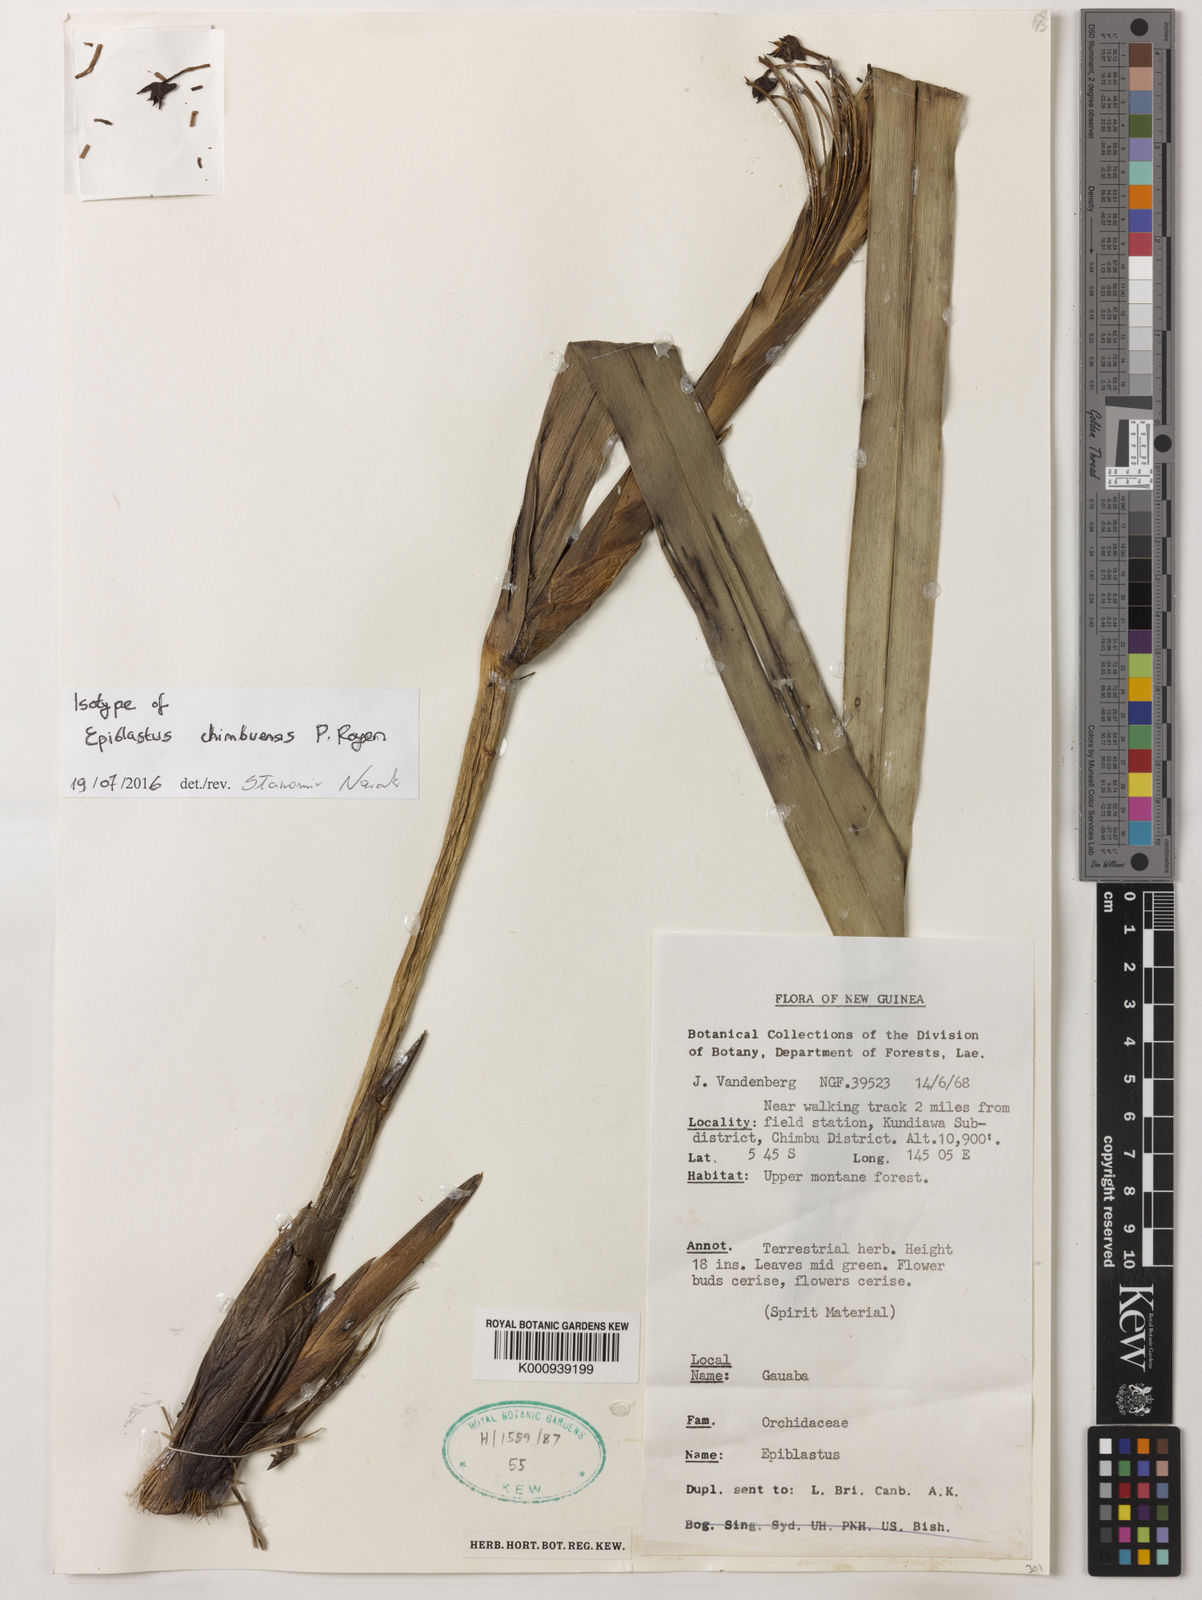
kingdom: Plantae
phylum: Tracheophyta
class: Liliopsida
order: Asparagales
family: Orchidaceae
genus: Epiblastus
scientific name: Epiblastus chimbuensis
